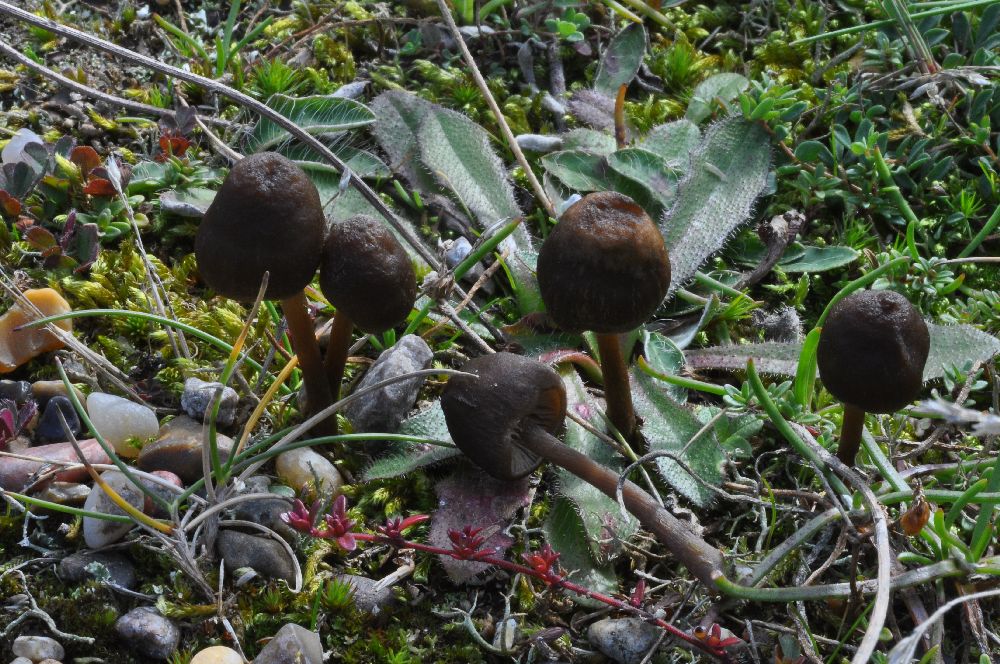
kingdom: Fungi
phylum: Basidiomycota
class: Agaricomycetes
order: Agaricales
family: Entolomataceae
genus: Entoloma
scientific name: Entoloma
